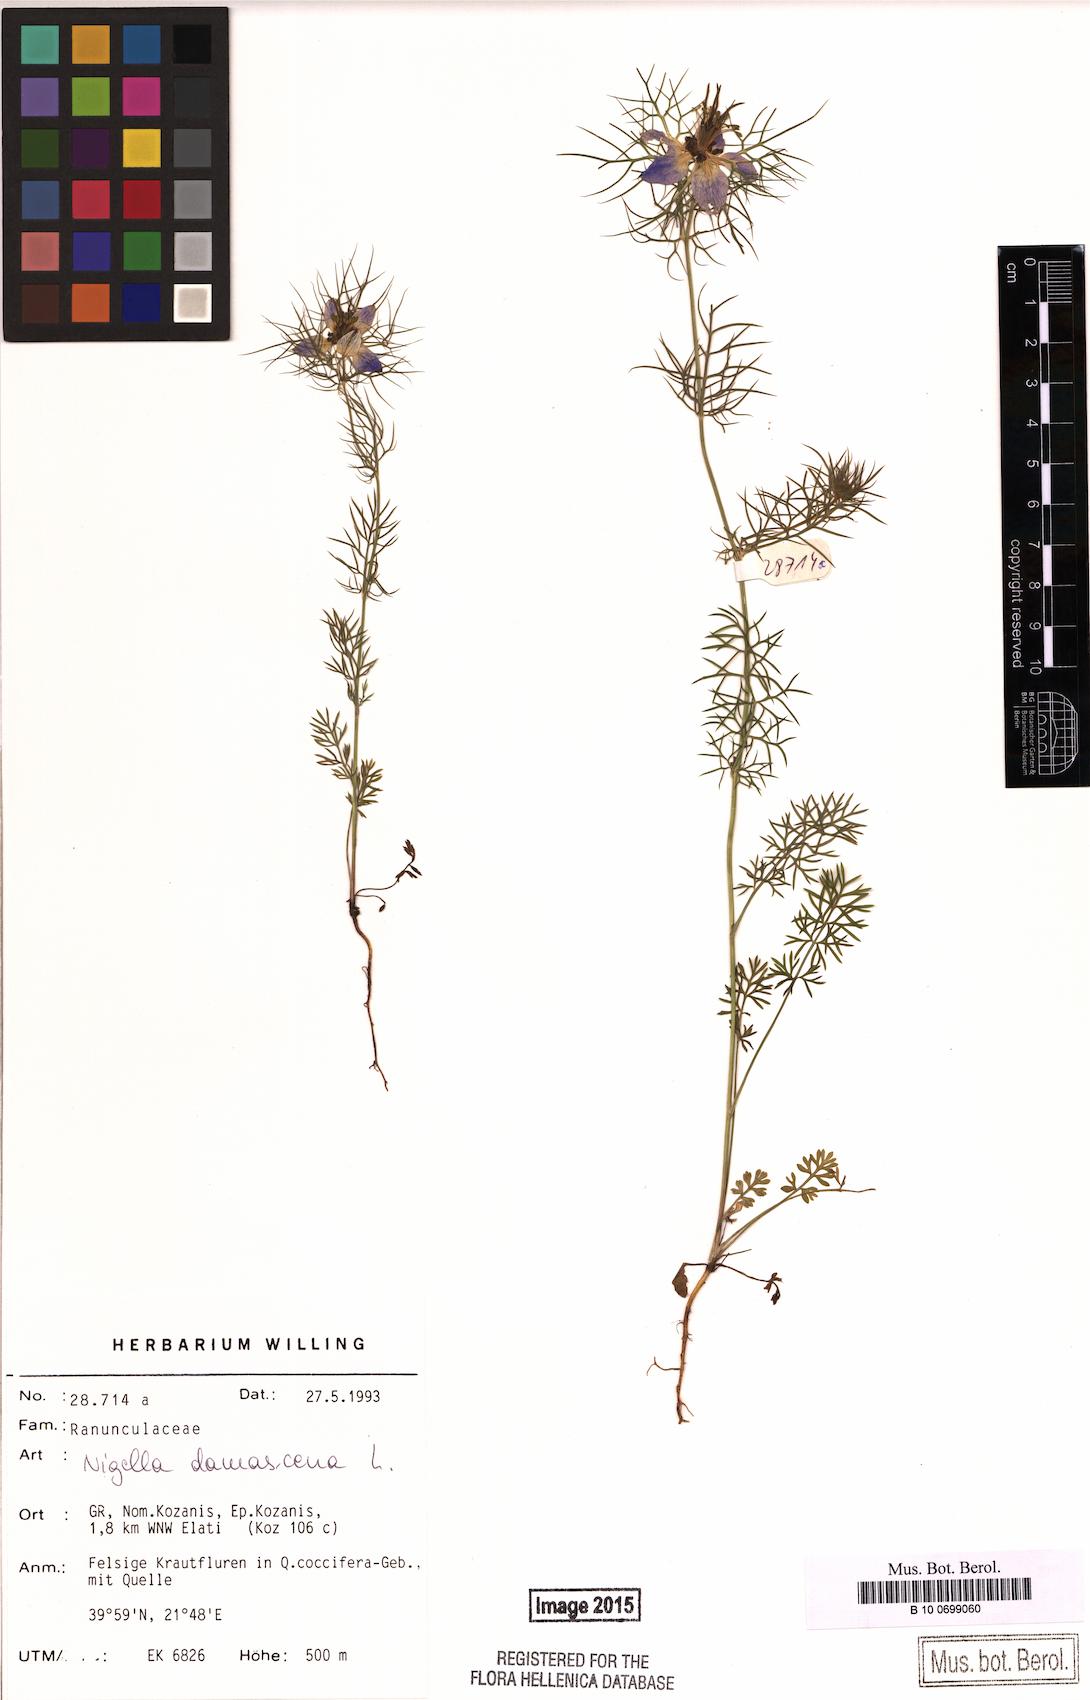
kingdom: Plantae
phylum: Tracheophyta
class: Magnoliopsida
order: Ranunculales
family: Ranunculaceae
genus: Nigella
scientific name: Nigella damascena
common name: Love-in-a-mist
